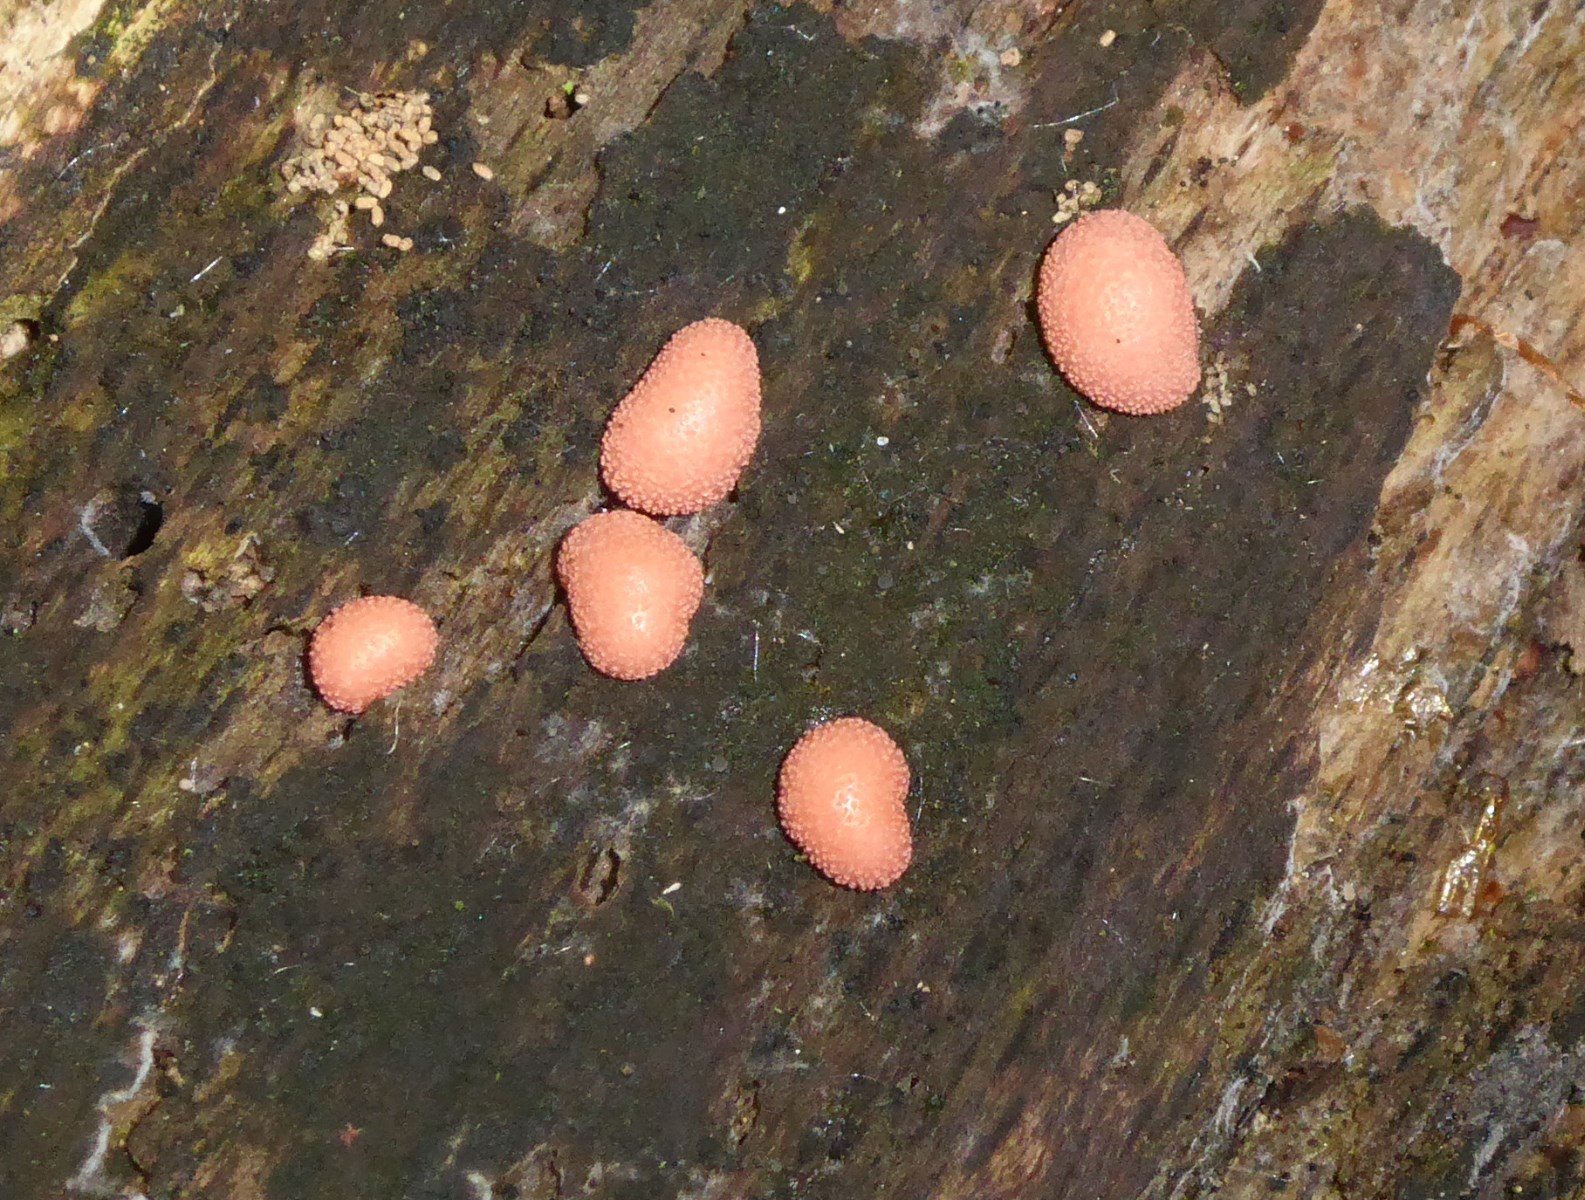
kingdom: Protozoa
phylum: Mycetozoa
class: Myxomycetes
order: Cribrariales
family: Tubiferaceae
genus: Lycogala
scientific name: Lycogala epidendrum
